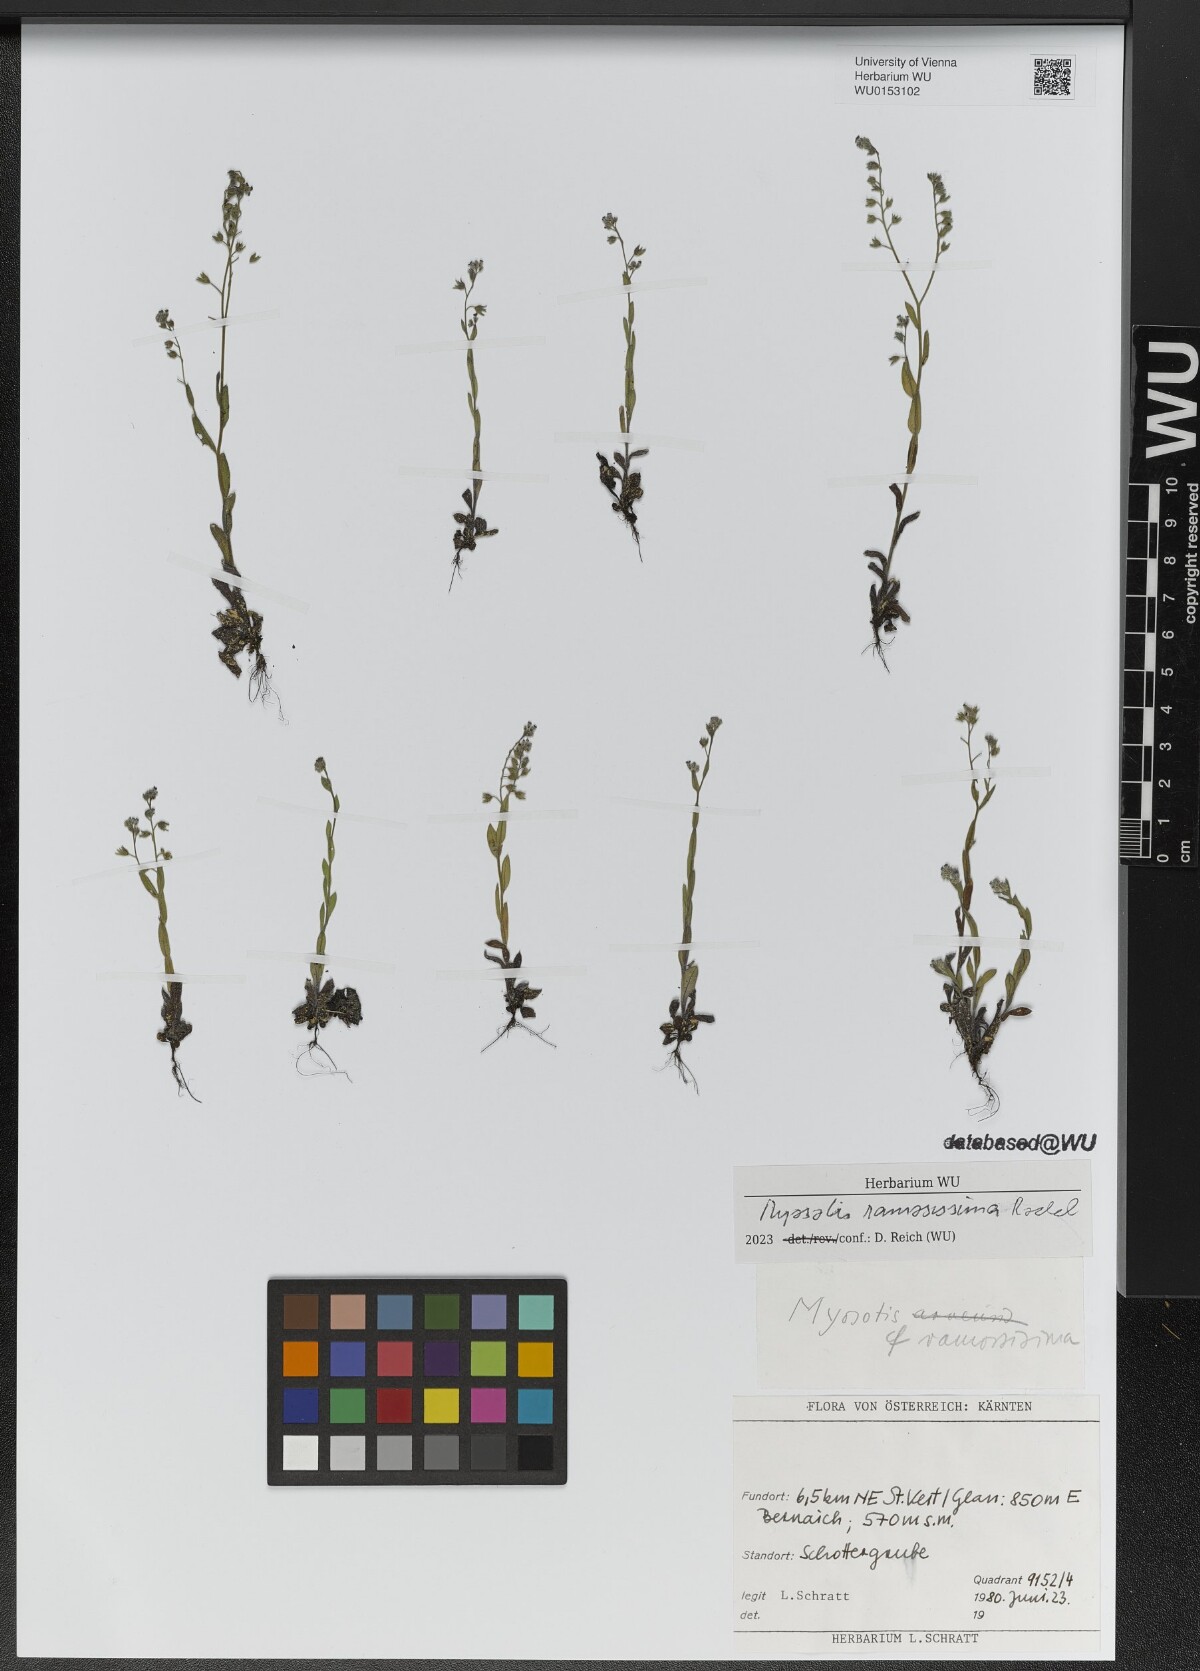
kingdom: Plantae
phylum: Tracheophyta
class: Magnoliopsida
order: Boraginales
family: Boraginaceae
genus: Myosotis
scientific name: Myosotis ramosissima
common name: Early forget-me-not
